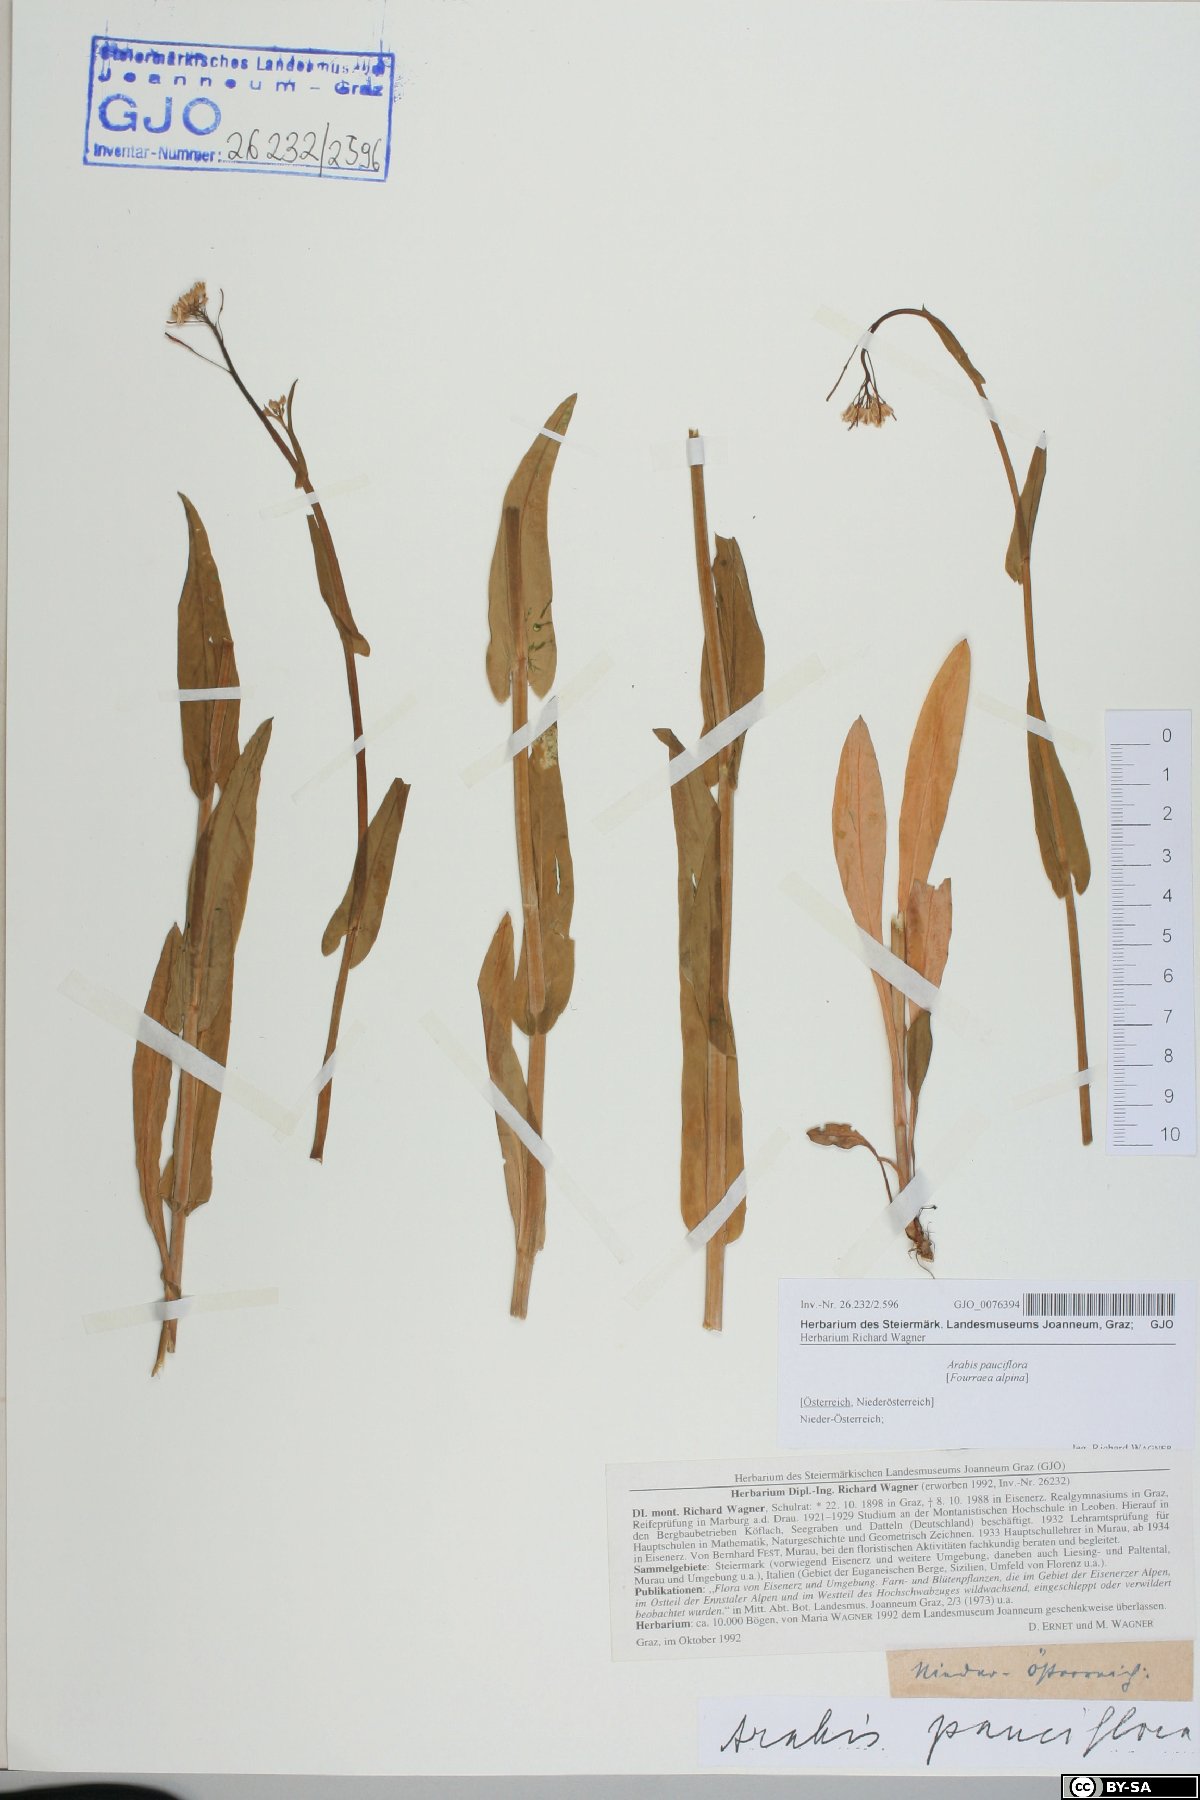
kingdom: Plantae
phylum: Tracheophyta
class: Magnoliopsida
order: Brassicales
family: Brassicaceae
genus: Fourraea
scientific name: Fourraea alpina
